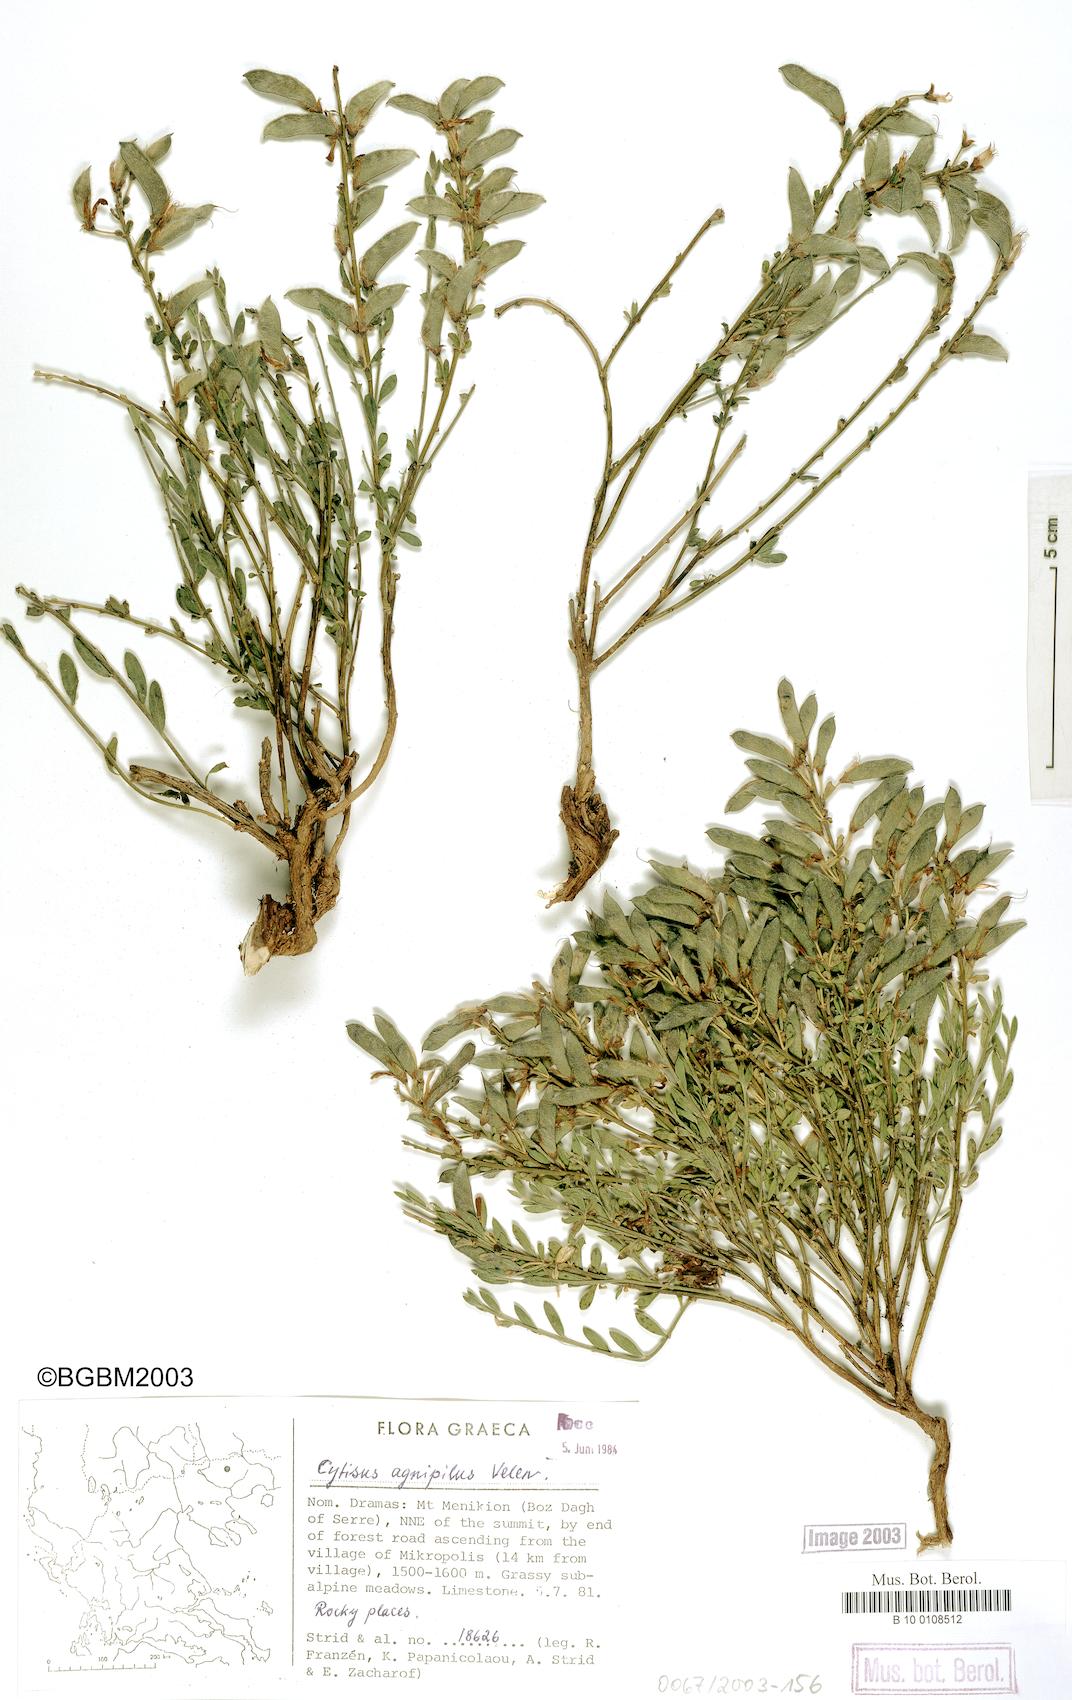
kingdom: Plantae
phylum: Tracheophyta
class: Magnoliopsida
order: Fabales
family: Fabaceae
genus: Chamaecytisus
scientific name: Chamaecytisus
